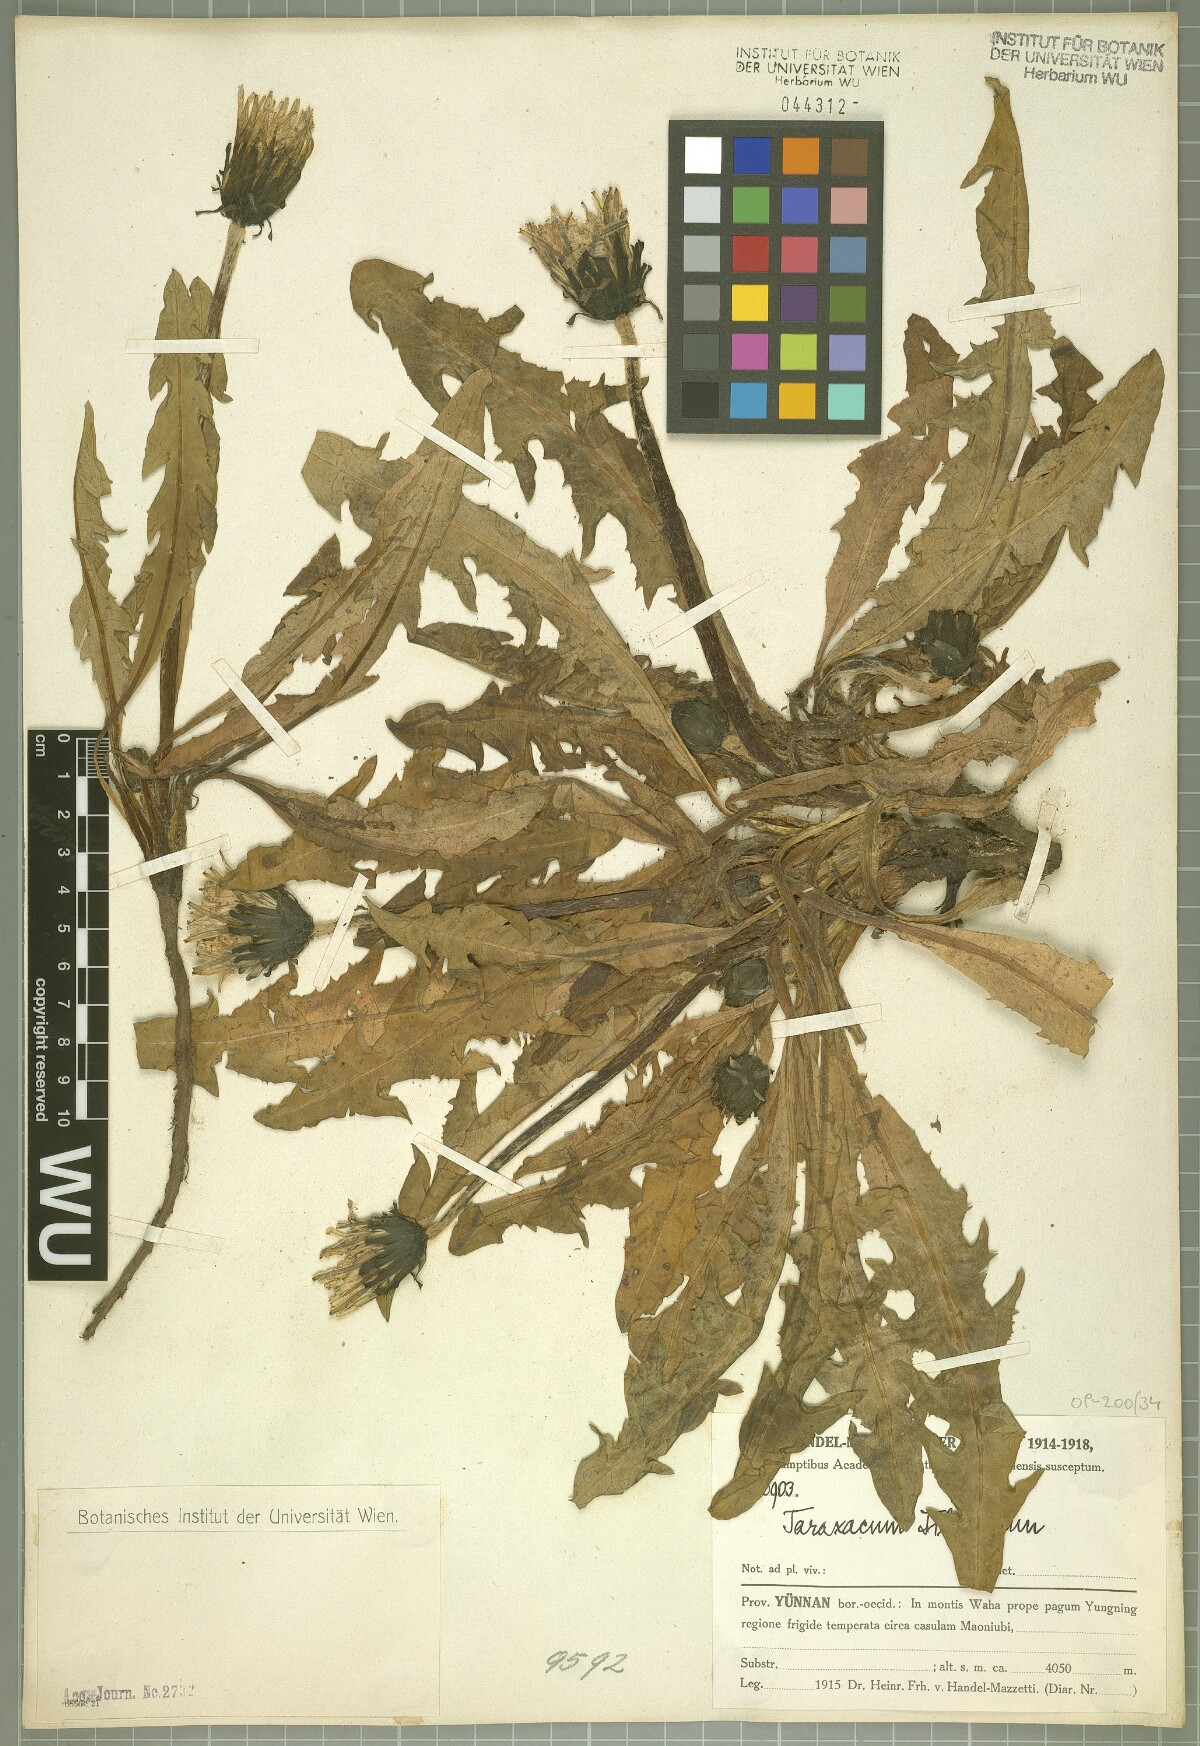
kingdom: Plantae
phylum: Tracheophyta
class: Magnoliopsida
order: Asterales
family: Asteraceae
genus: Taraxacum
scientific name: Taraxacum tibetanum
